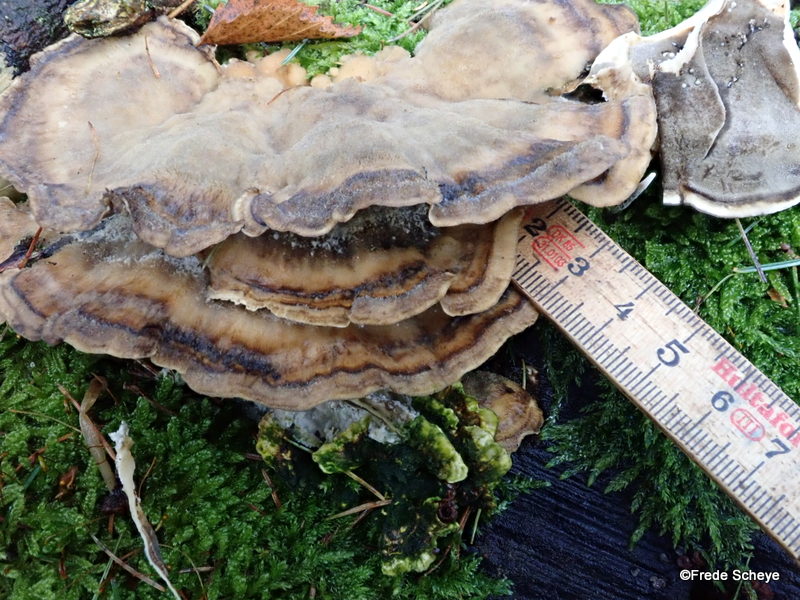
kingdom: Fungi
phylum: Basidiomycota
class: Agaricomycetes
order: Polyporales
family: Phanerochaetaceae
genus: Bjerkandera
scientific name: Bjerkandera adusta
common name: sveden sodporesvamp
